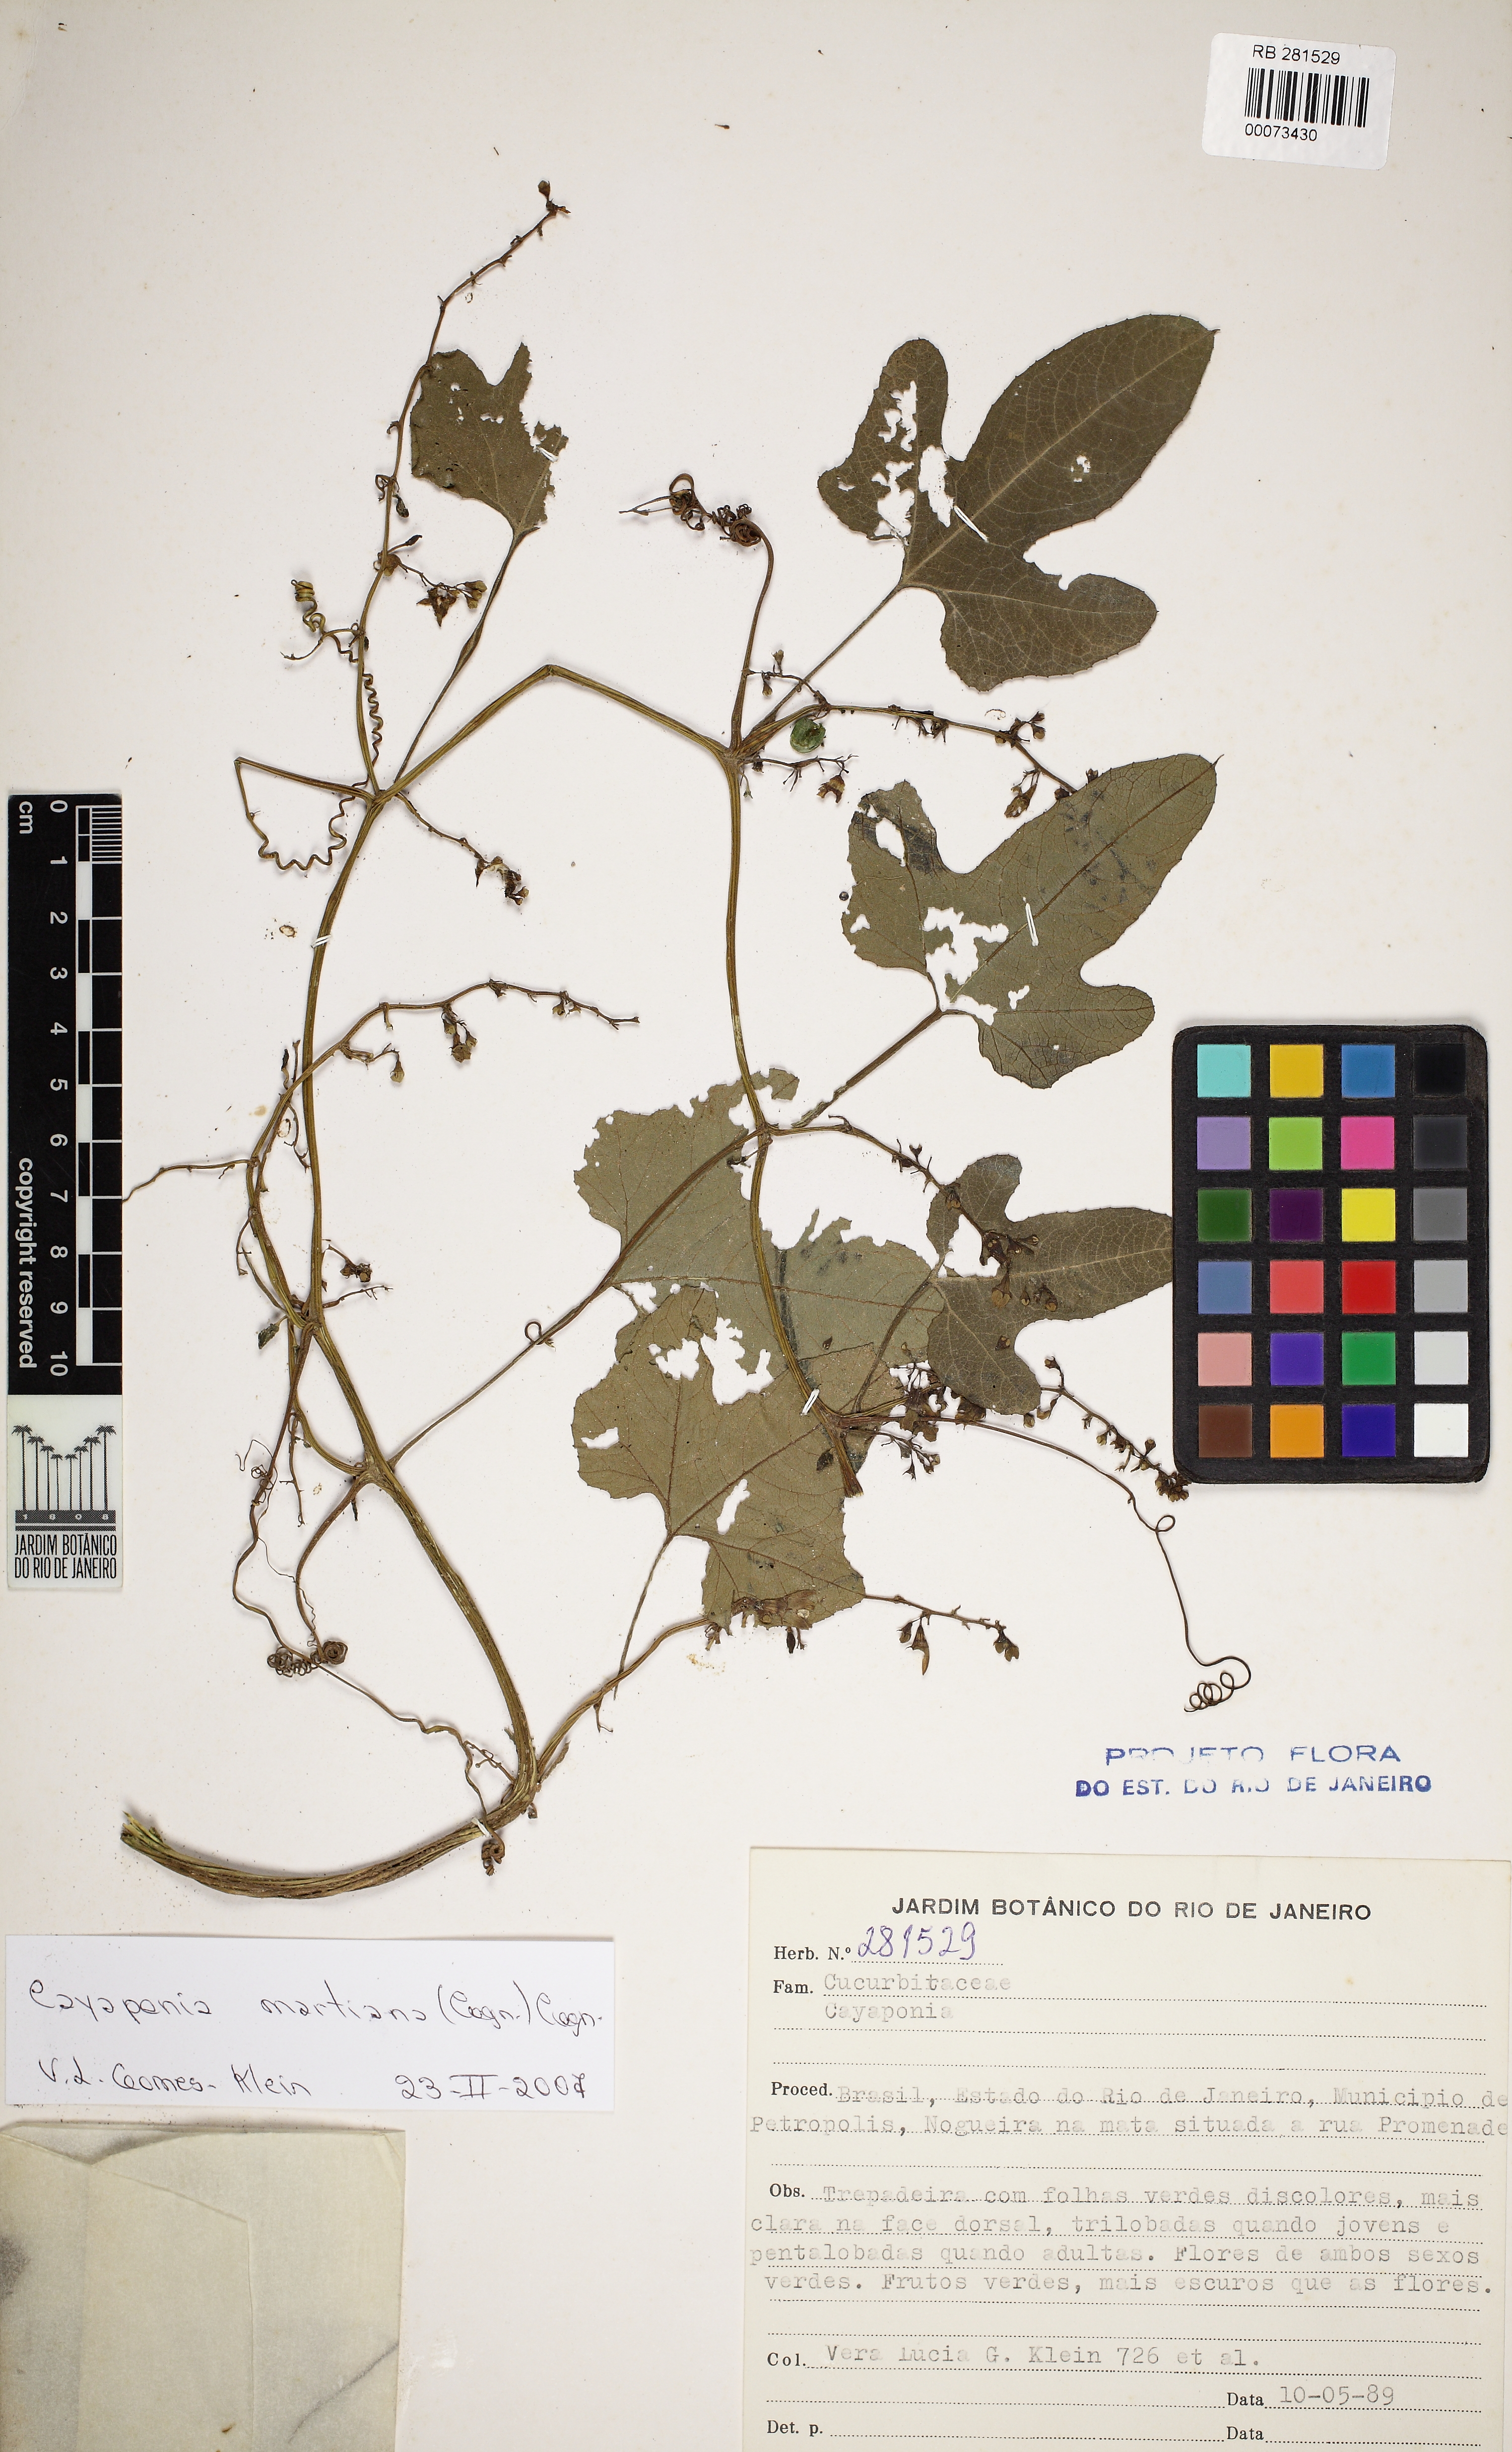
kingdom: Plantae
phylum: Tracheophyta
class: Magnoliopsida
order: Cucurbitales
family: Cucurbitaceae
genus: Cayaponia
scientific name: Cayaponia martiana
